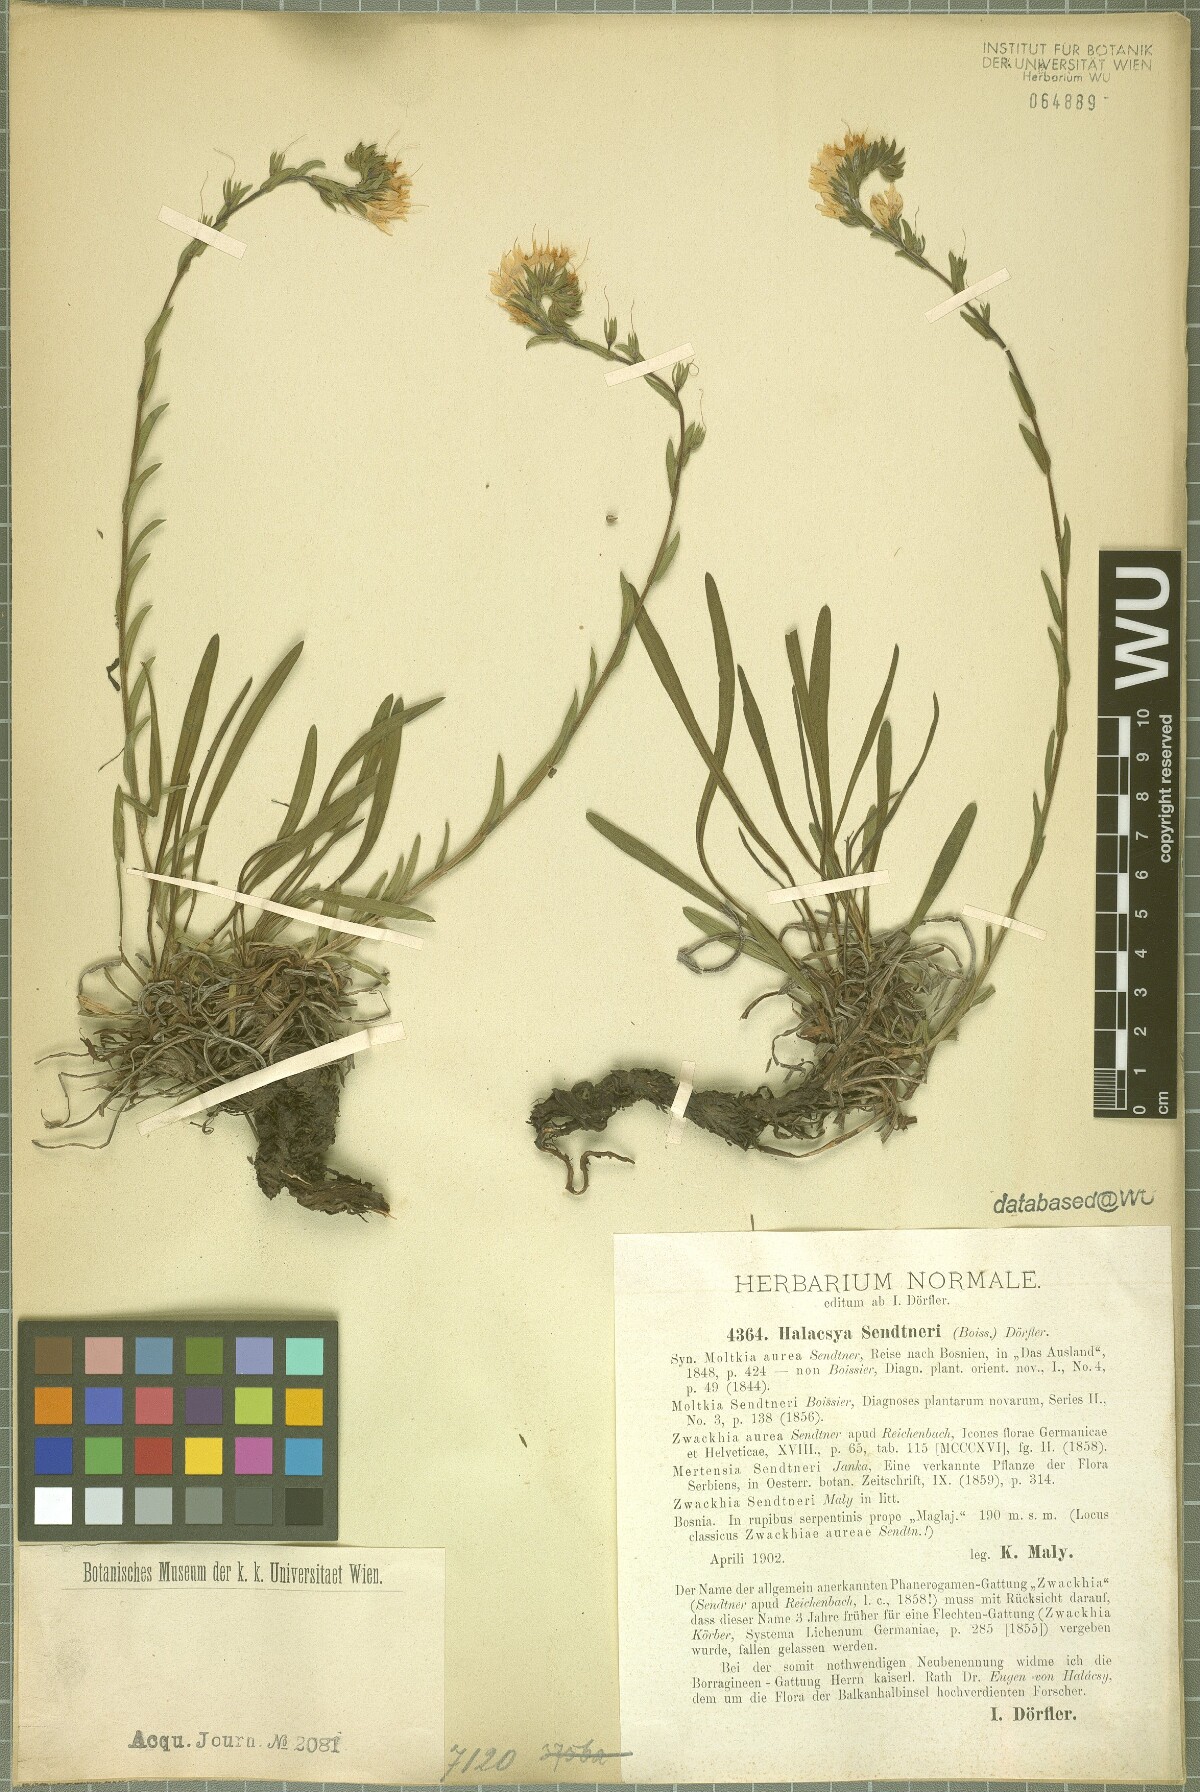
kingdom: Plantae
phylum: Tracheophyta
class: Magnoliopsida
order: Boraginales
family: Boraginaceae
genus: Halacsya
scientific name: Halacsya sendtneri
